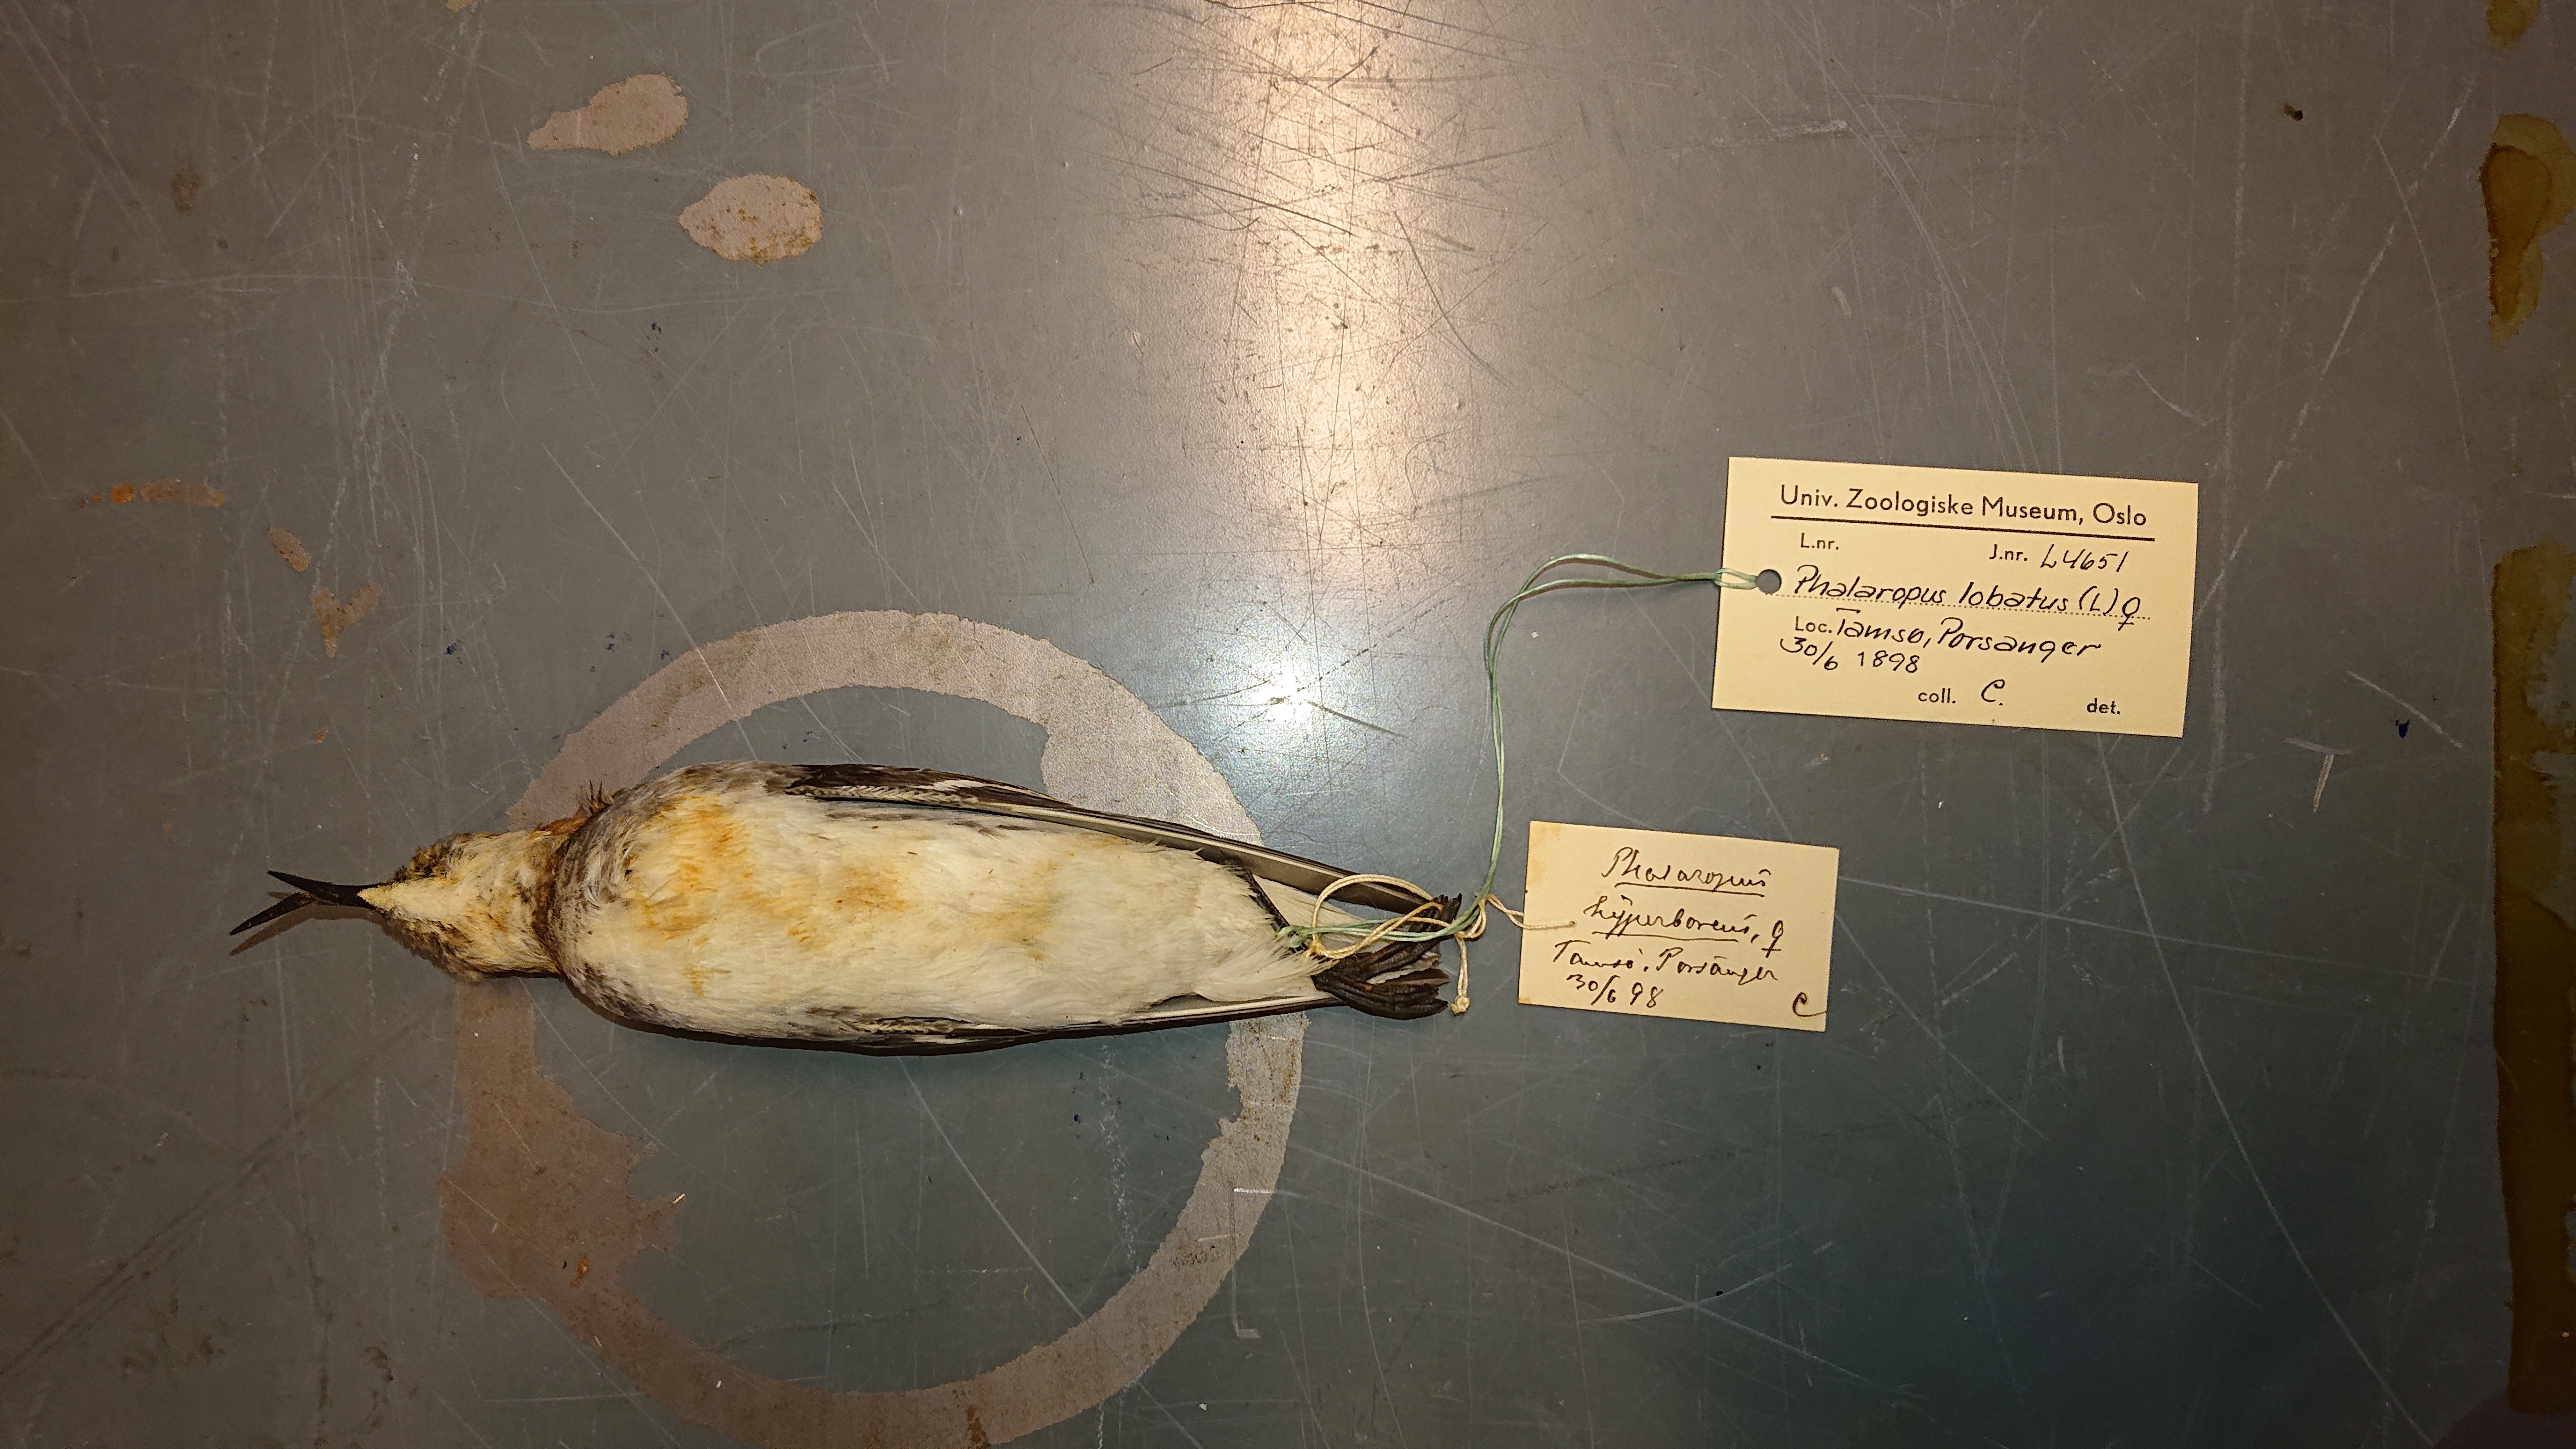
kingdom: Animalia
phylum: Chordata
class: Aves
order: Charadriiformes
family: Scolopacidae
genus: Phalaropus
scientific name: Phalaropus lobatus
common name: Red-necked phalarope
